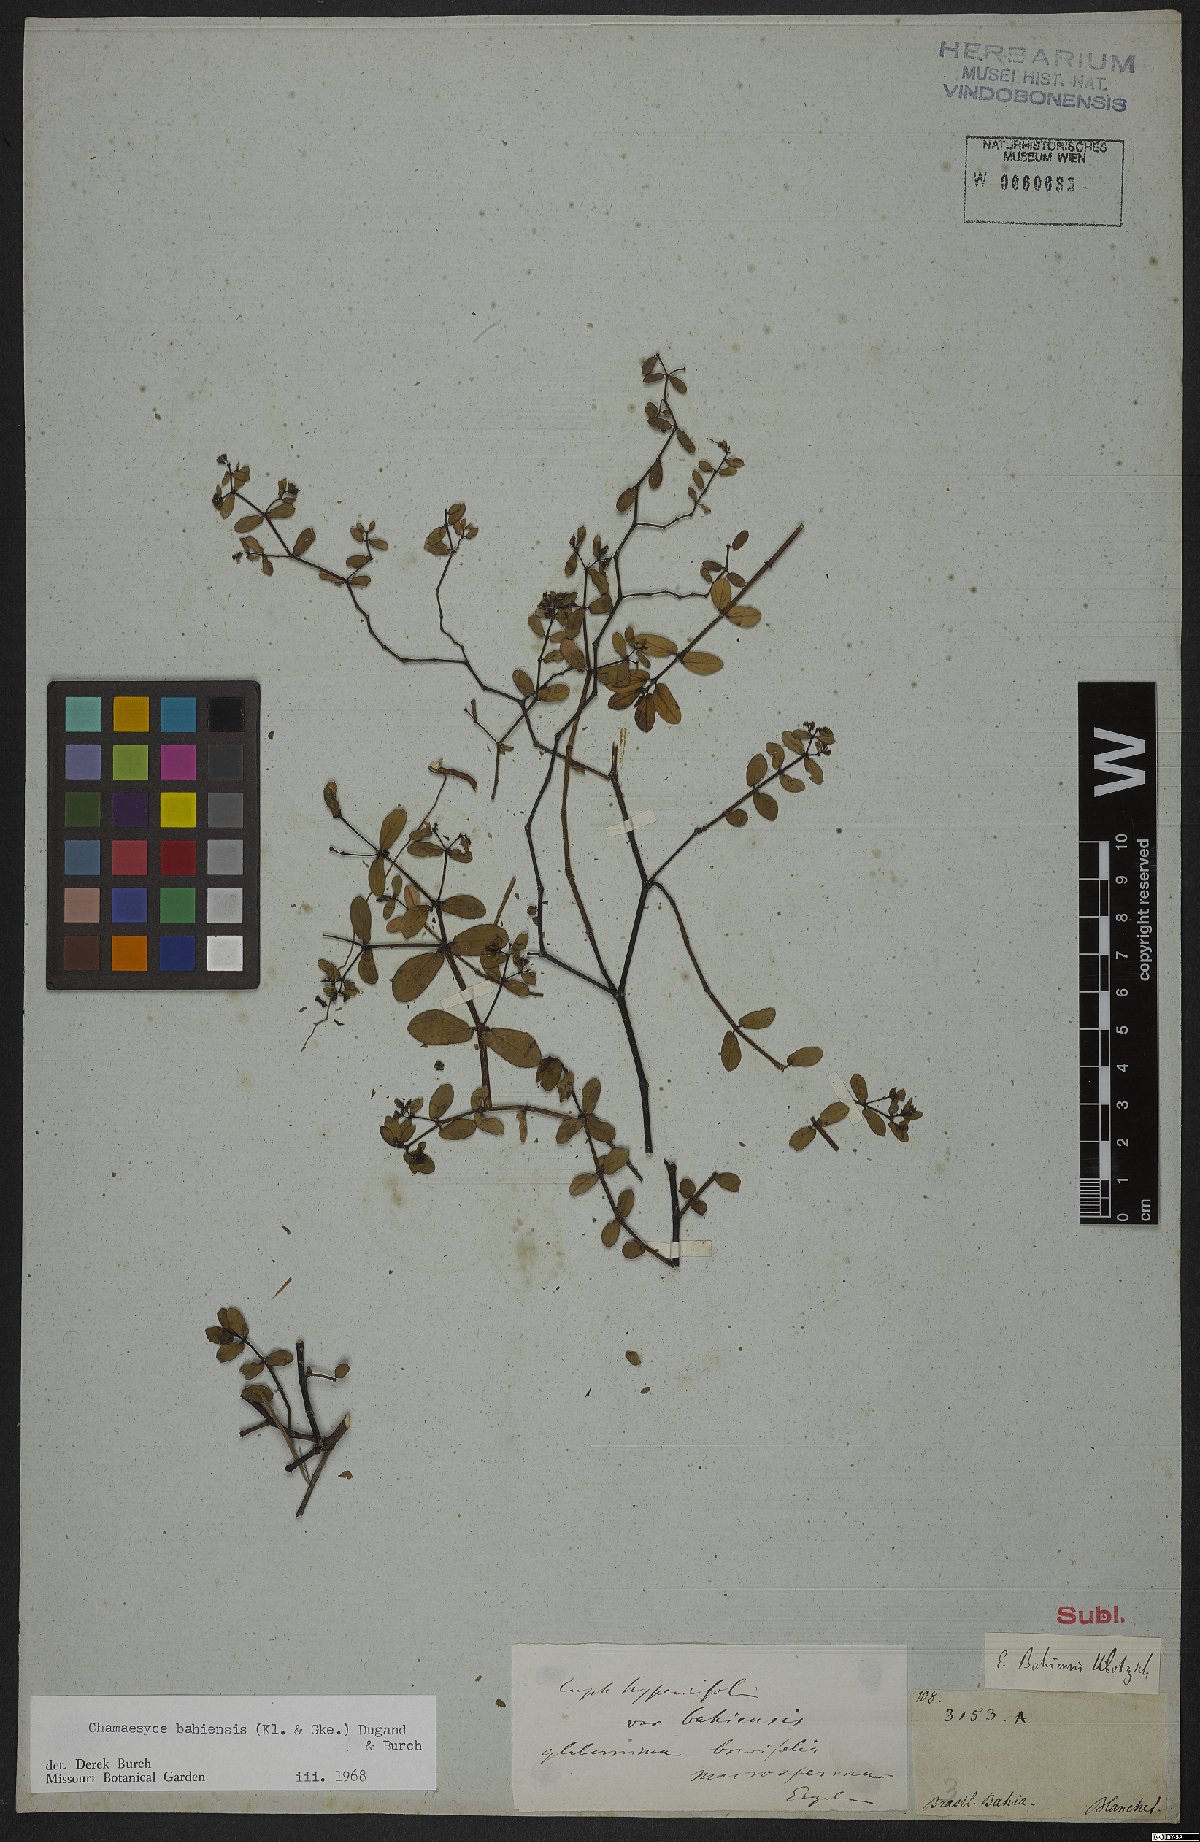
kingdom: Plantae
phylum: Tracheophyta
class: Magnoliopsida
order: Malpighiales
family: Euphorbiaceae
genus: Euphorbia
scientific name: Euphorbia bahiensis
